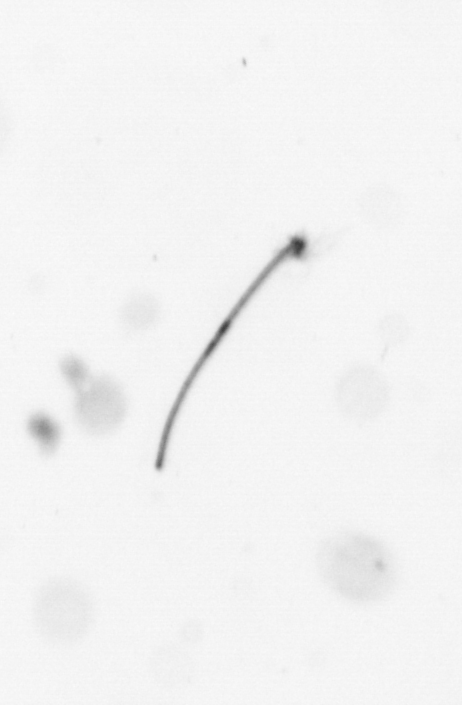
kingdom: Chromista
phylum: Ochrophyta
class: Bacillariophyceae
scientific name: Bacillariophyceae
